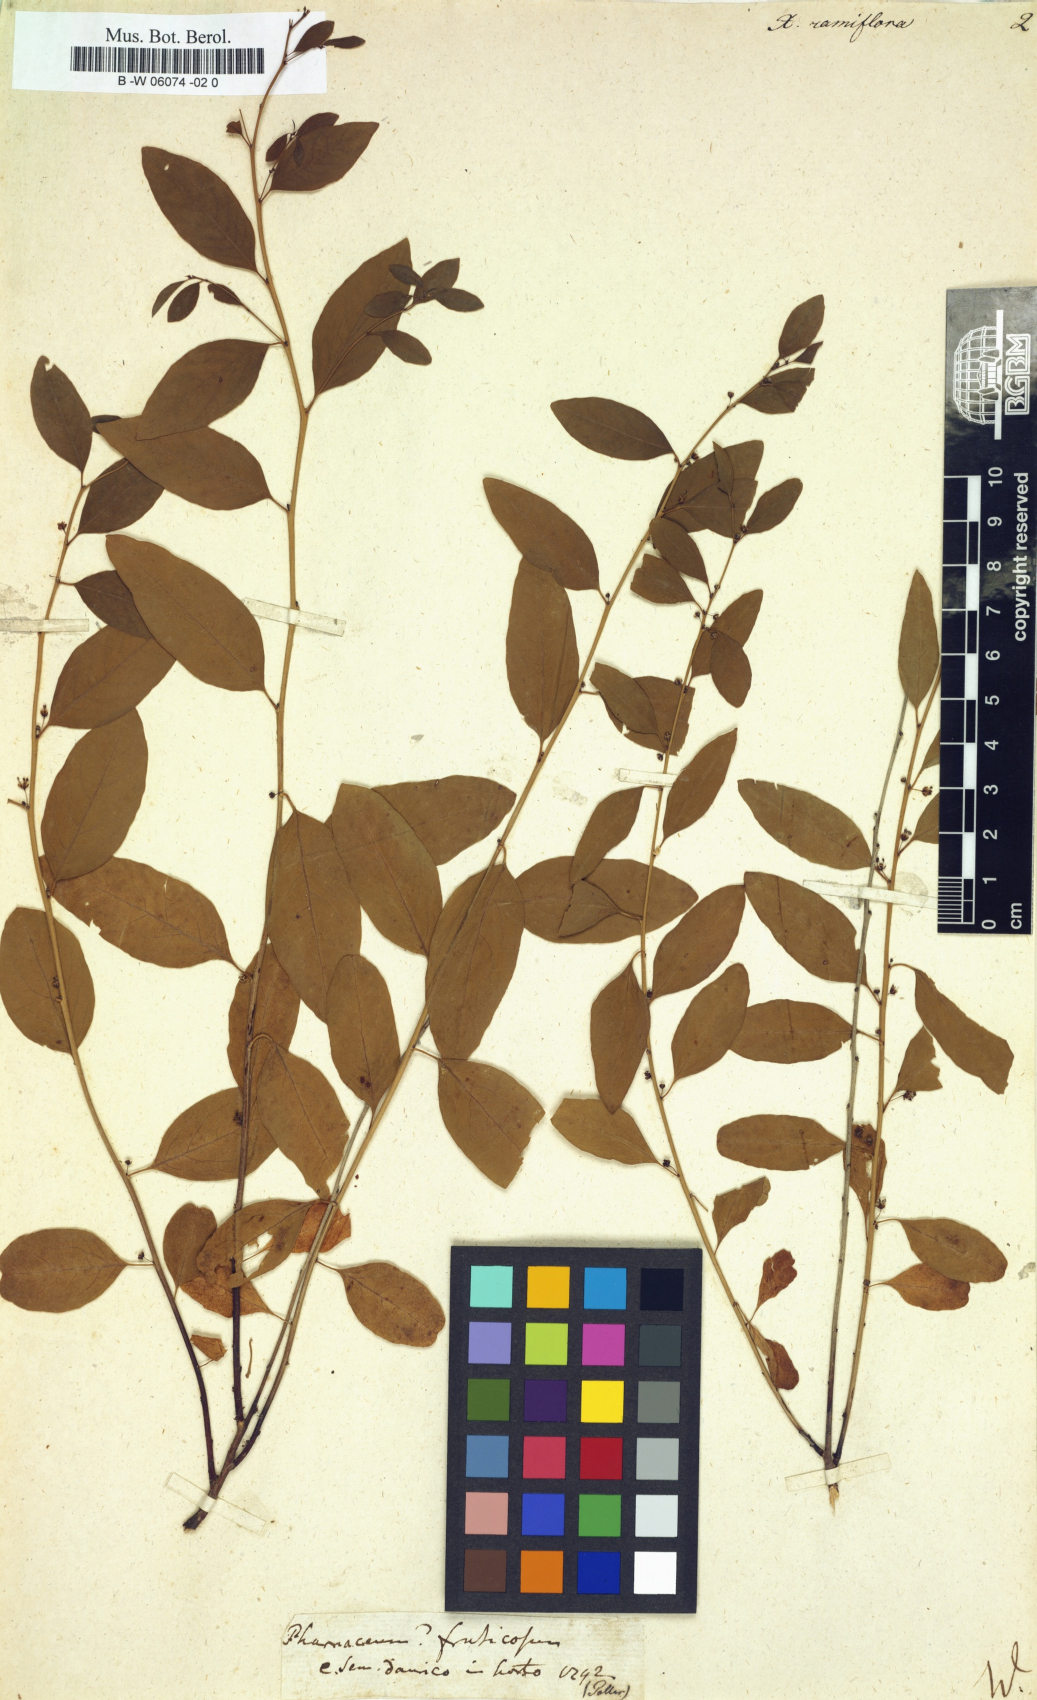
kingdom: Plantae
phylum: Tracheophyta
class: Magnoliopsida
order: Malpighiales
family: Phyllanthaceae
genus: Flueggea
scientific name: Flueggea suffruticosa
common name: Arching bushweed
